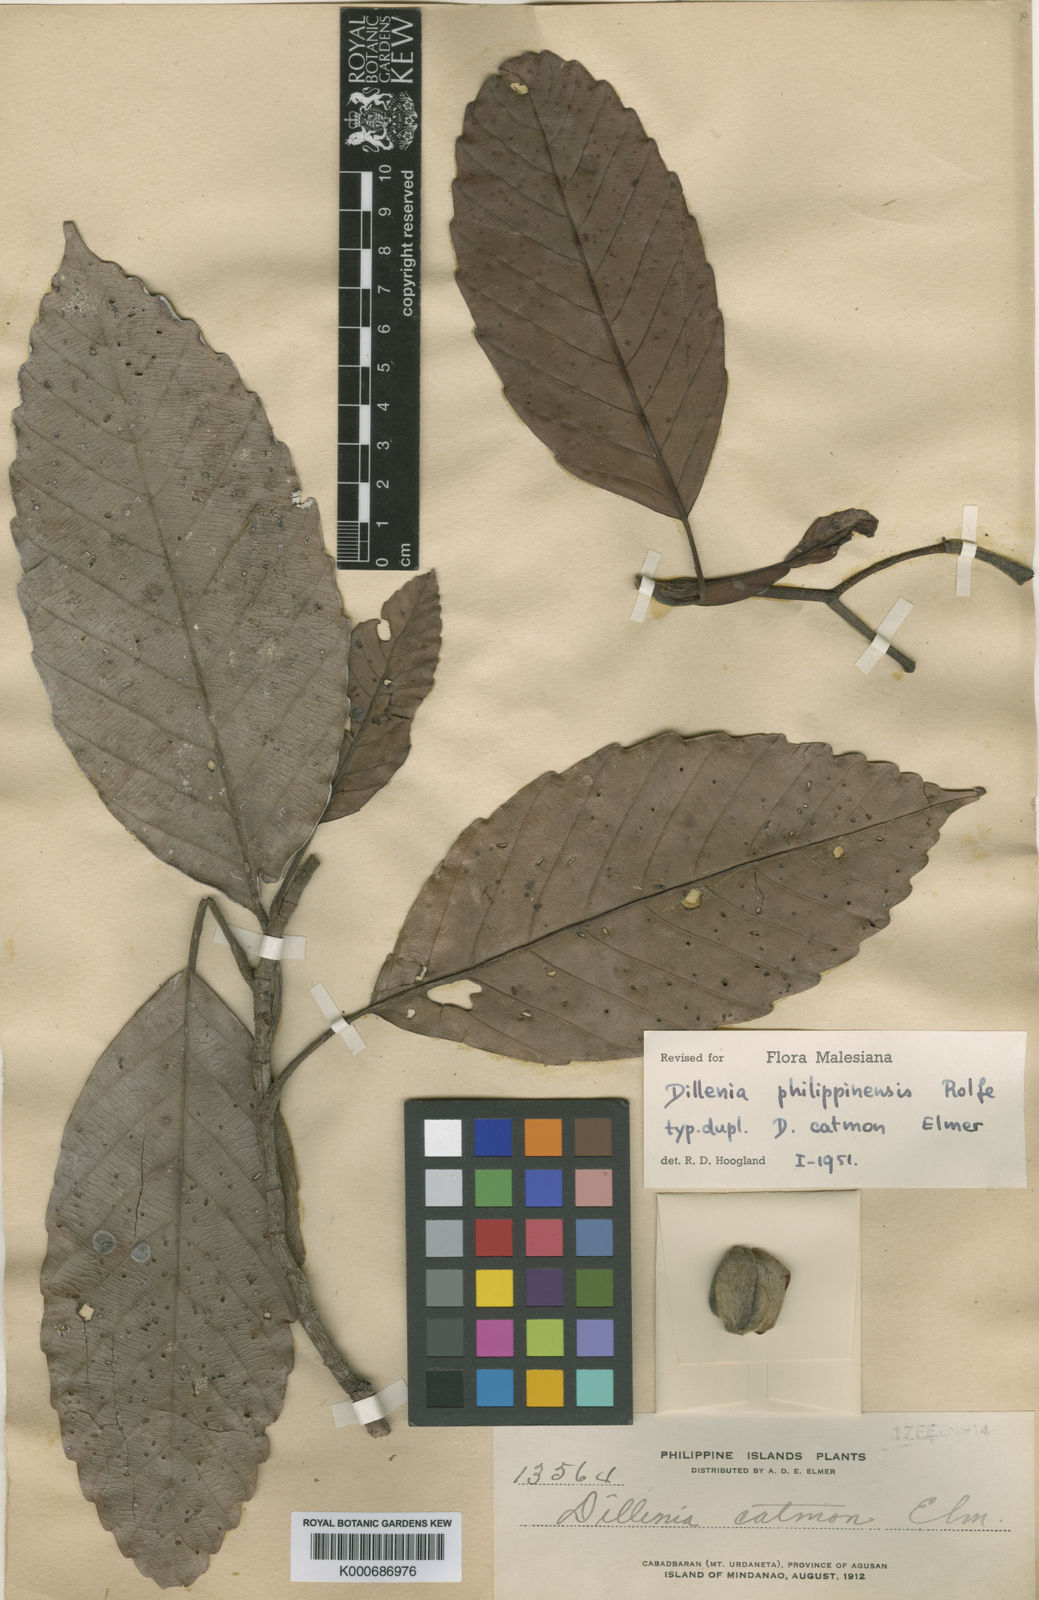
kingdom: Plantae
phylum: Tracheophyta
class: Magnoliopsida
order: Dilleniales
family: Dilleniaceae
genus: Dillenia
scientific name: Dillenia philippinensis
